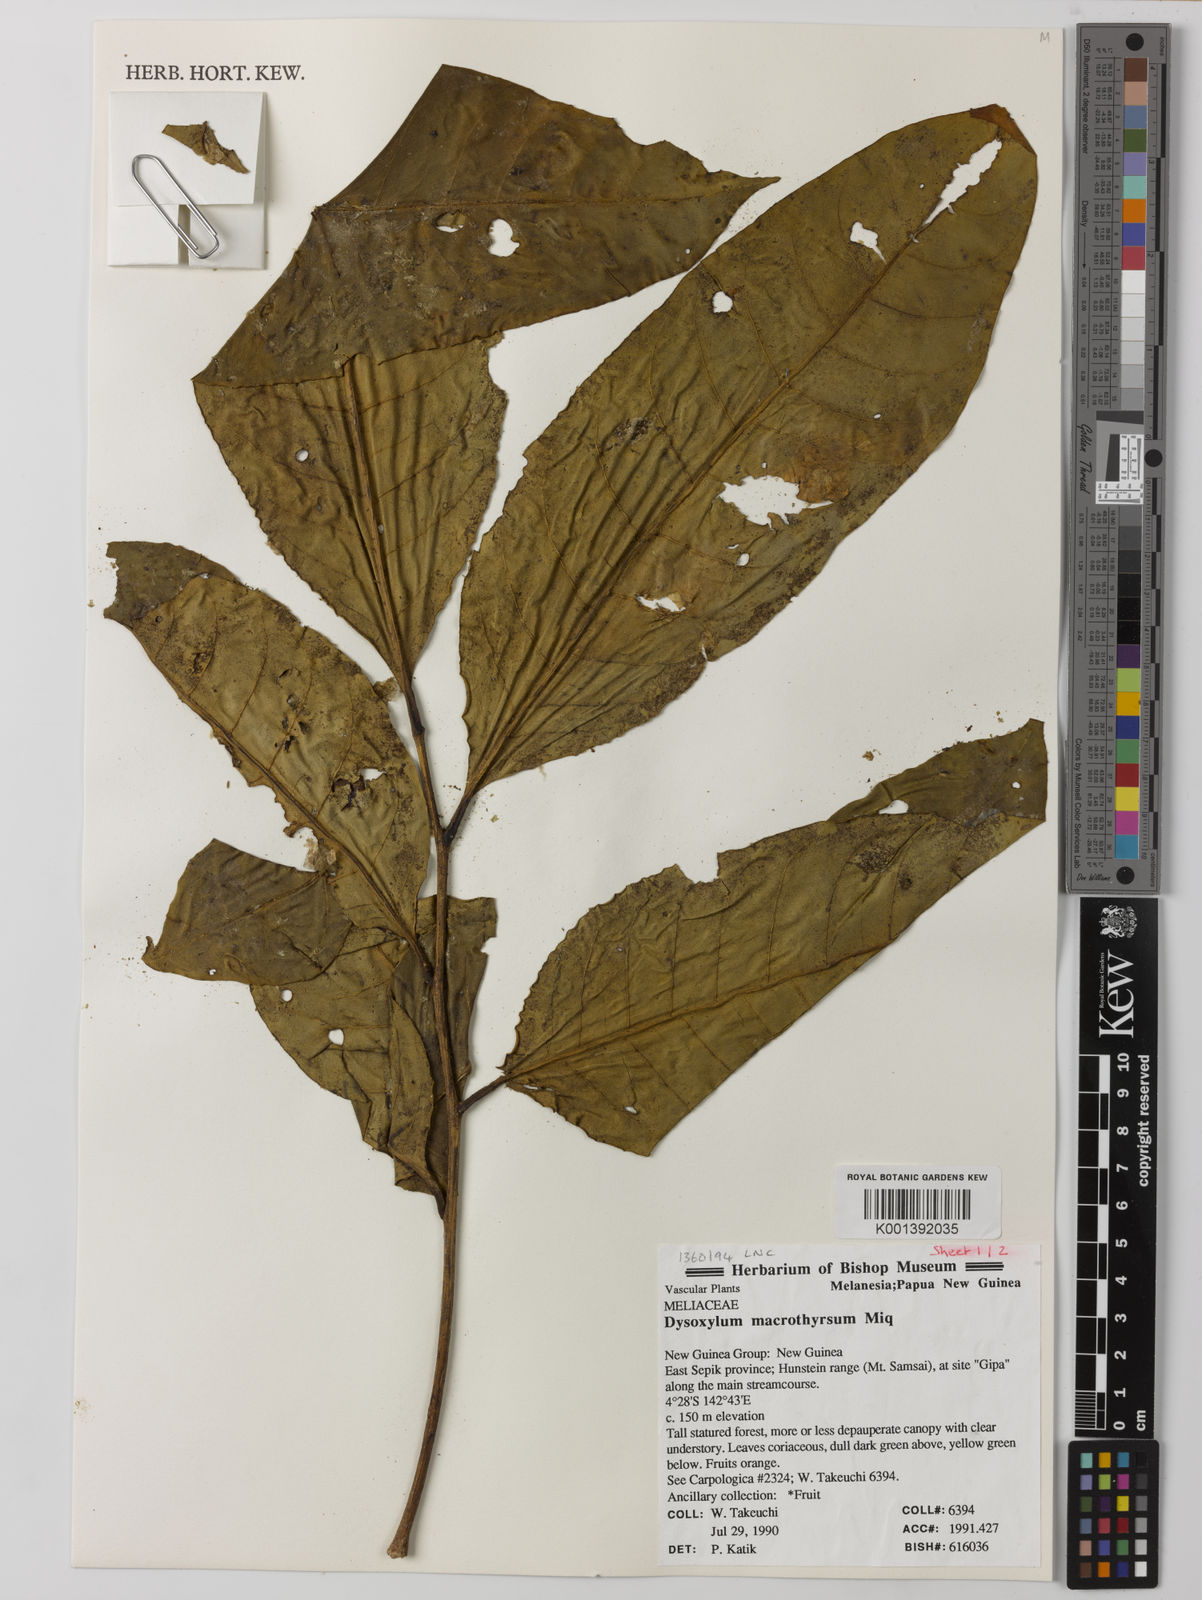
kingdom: Plantae
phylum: Tracheophyta
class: Magnoliopsida
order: Sapindales
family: Meliaceae
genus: Prasoxylon
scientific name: Prasoxylon
